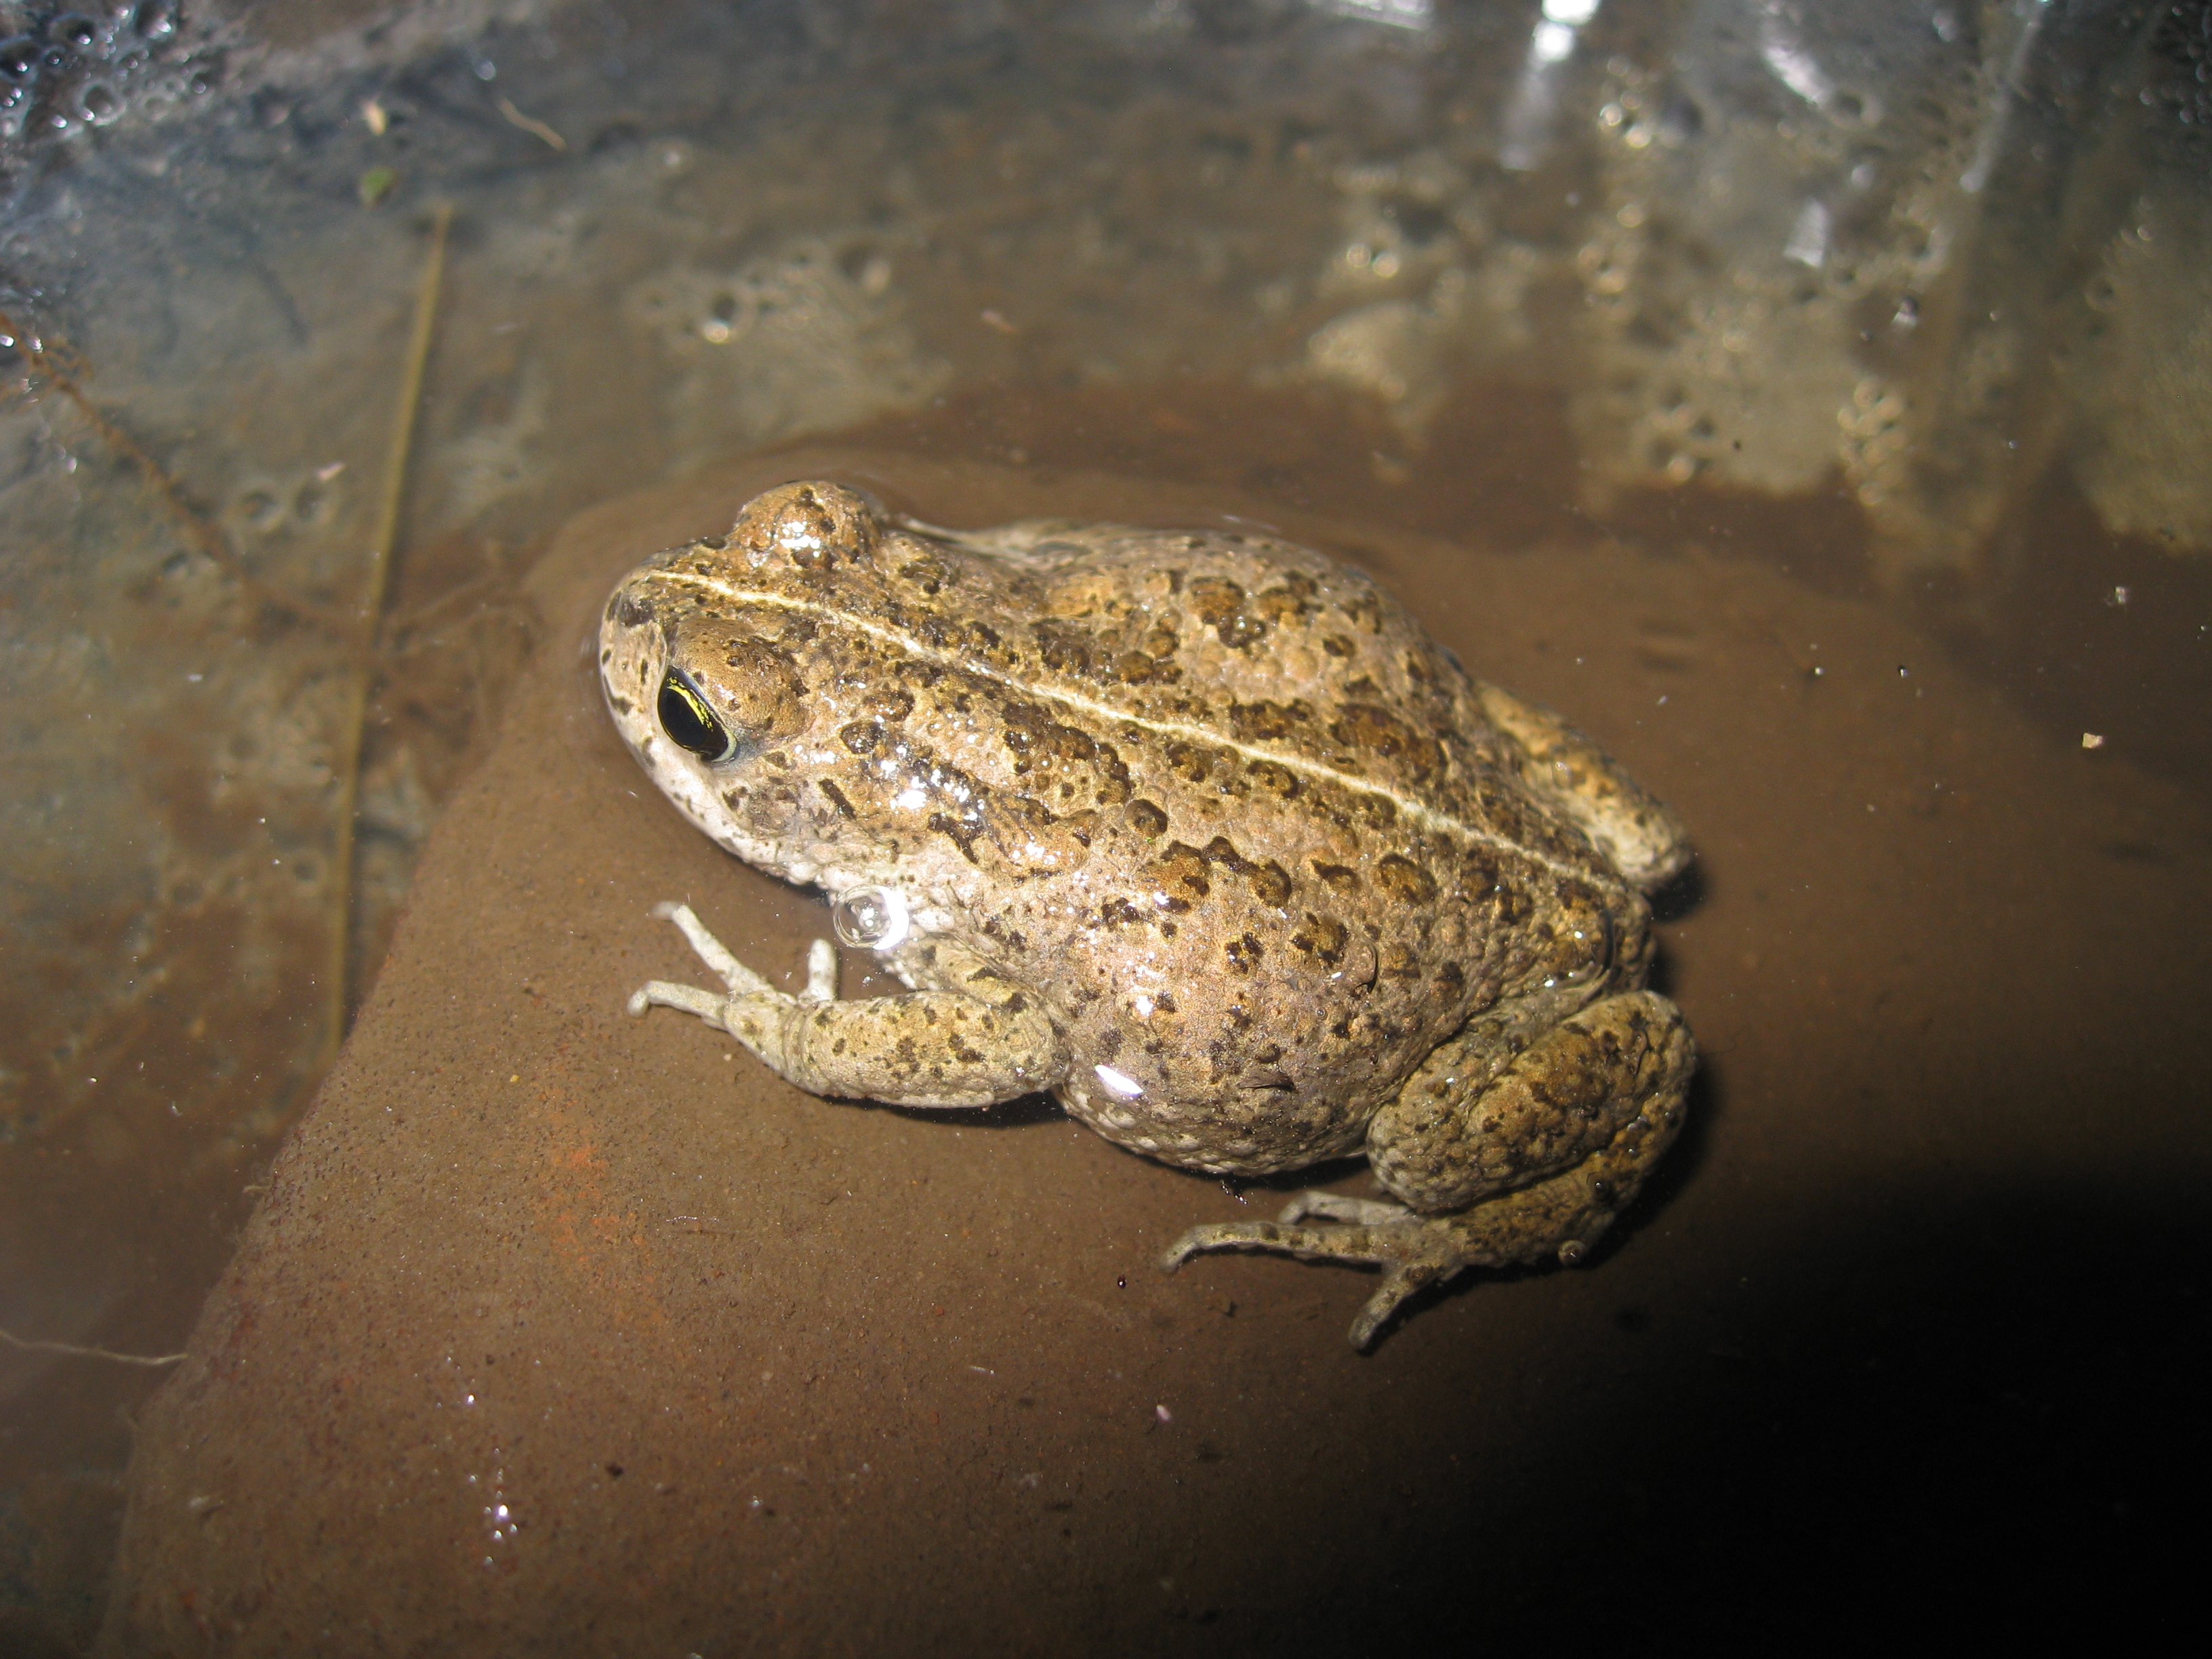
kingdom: Animalia
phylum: Chordata
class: Amphibia
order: Anura
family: Bufonidae
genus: Vandijkophrynus
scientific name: Vandijkophrynus amatolicus
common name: Amatola toad
